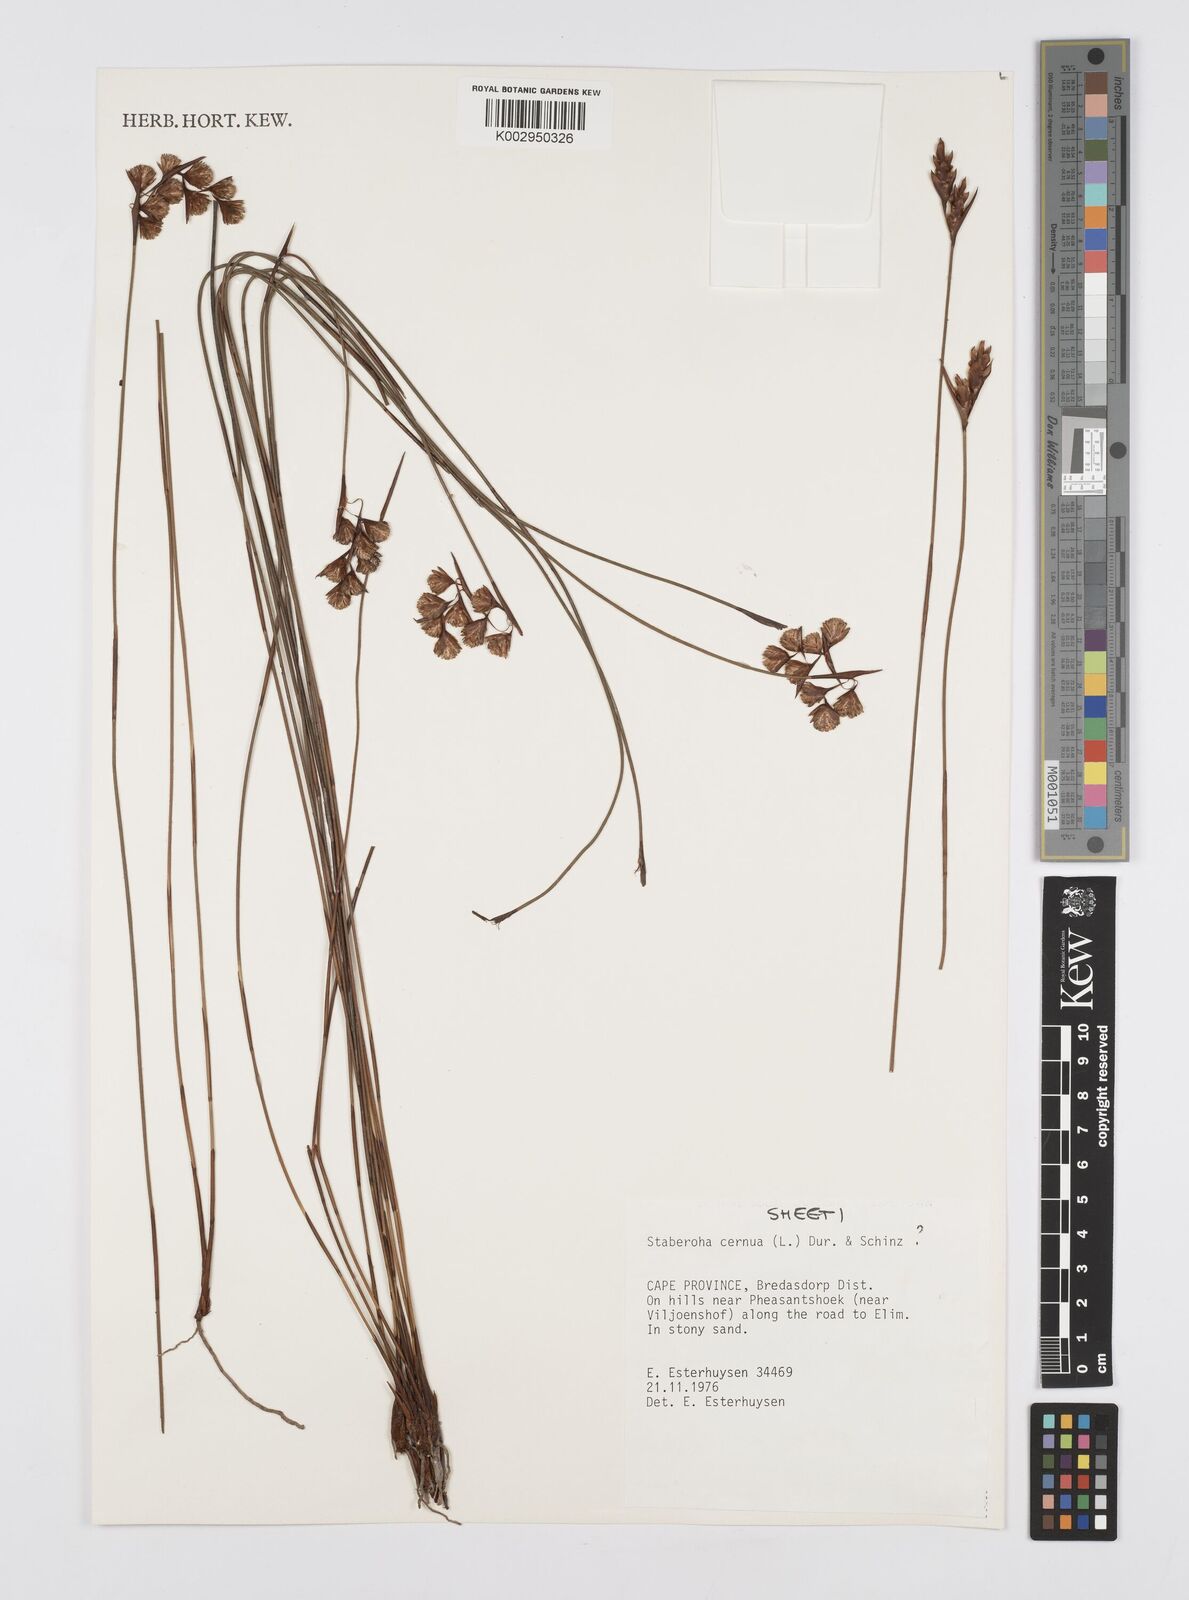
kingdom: Plantae
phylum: Tracheophyta
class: Liliopsida
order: Poales
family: Restionaceae
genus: Staberoha
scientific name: Staberoha cernua
